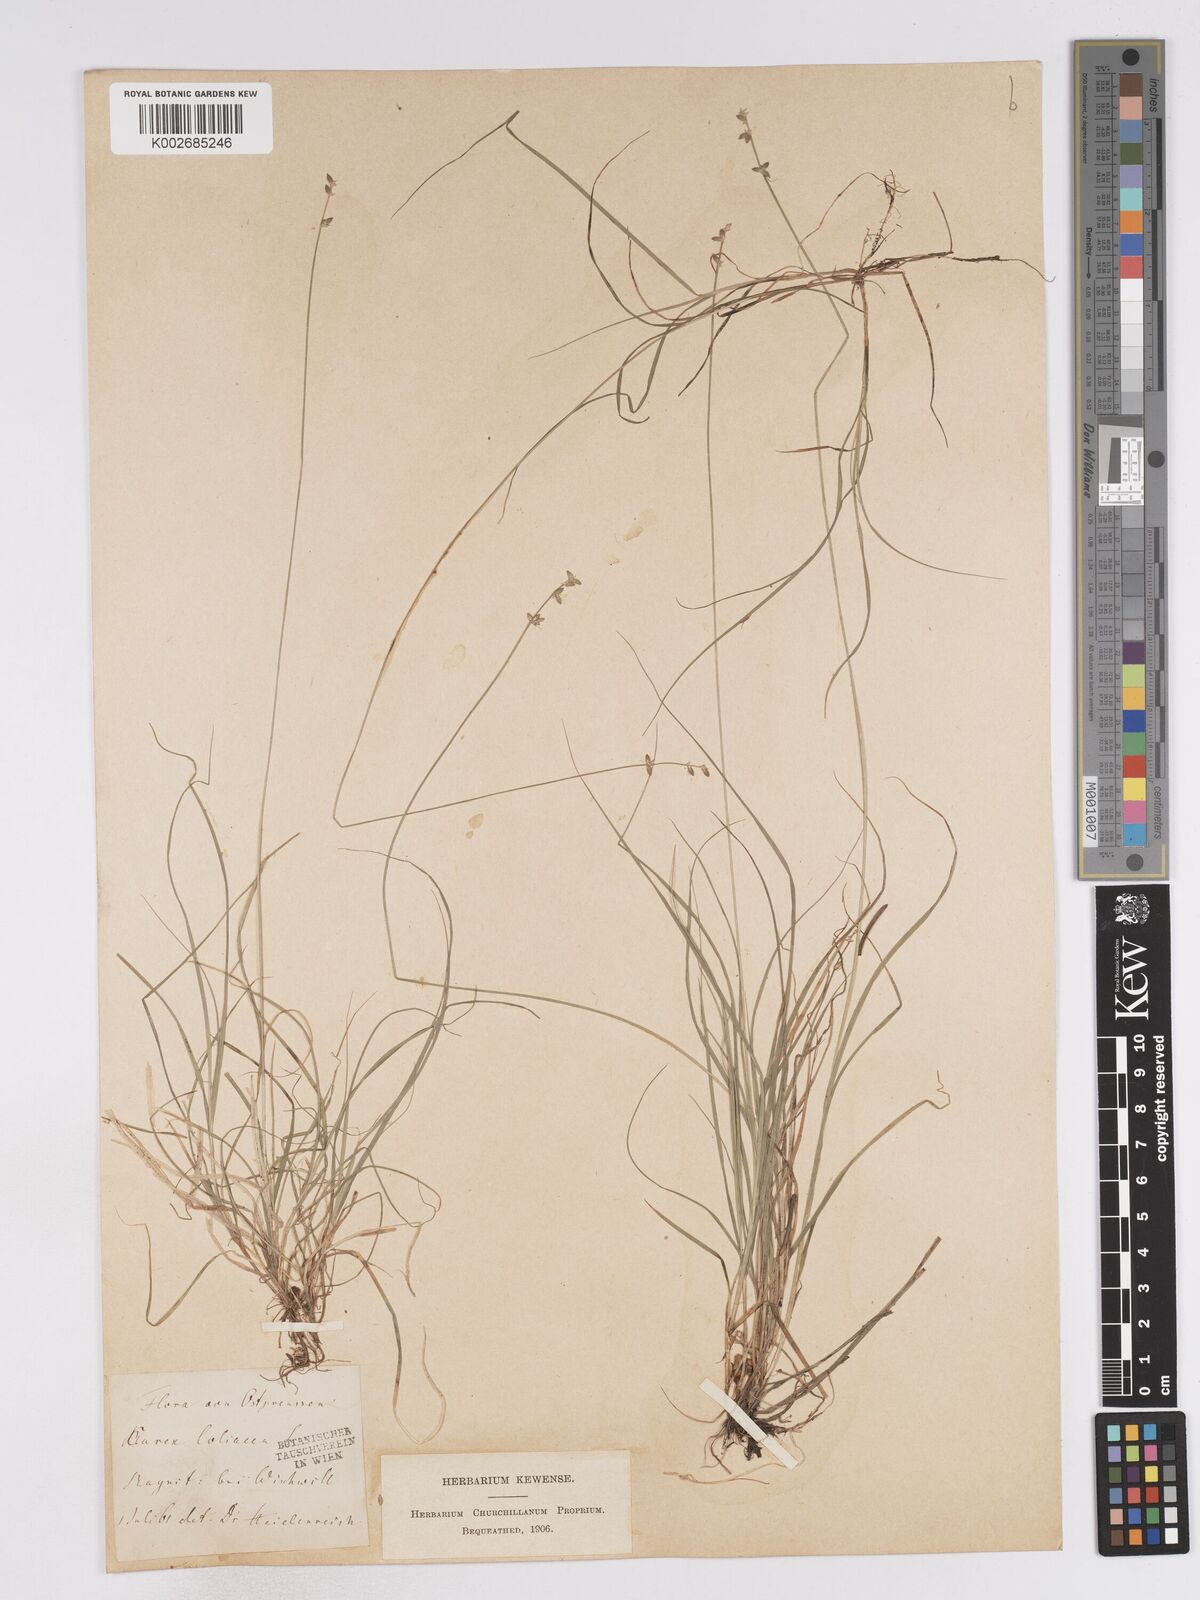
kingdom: Plantae
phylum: Tracheophyta
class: Liliopsida
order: Poales
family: Cyperaceae
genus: Carex
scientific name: Carex loliacea
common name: Ryegrass sedge
